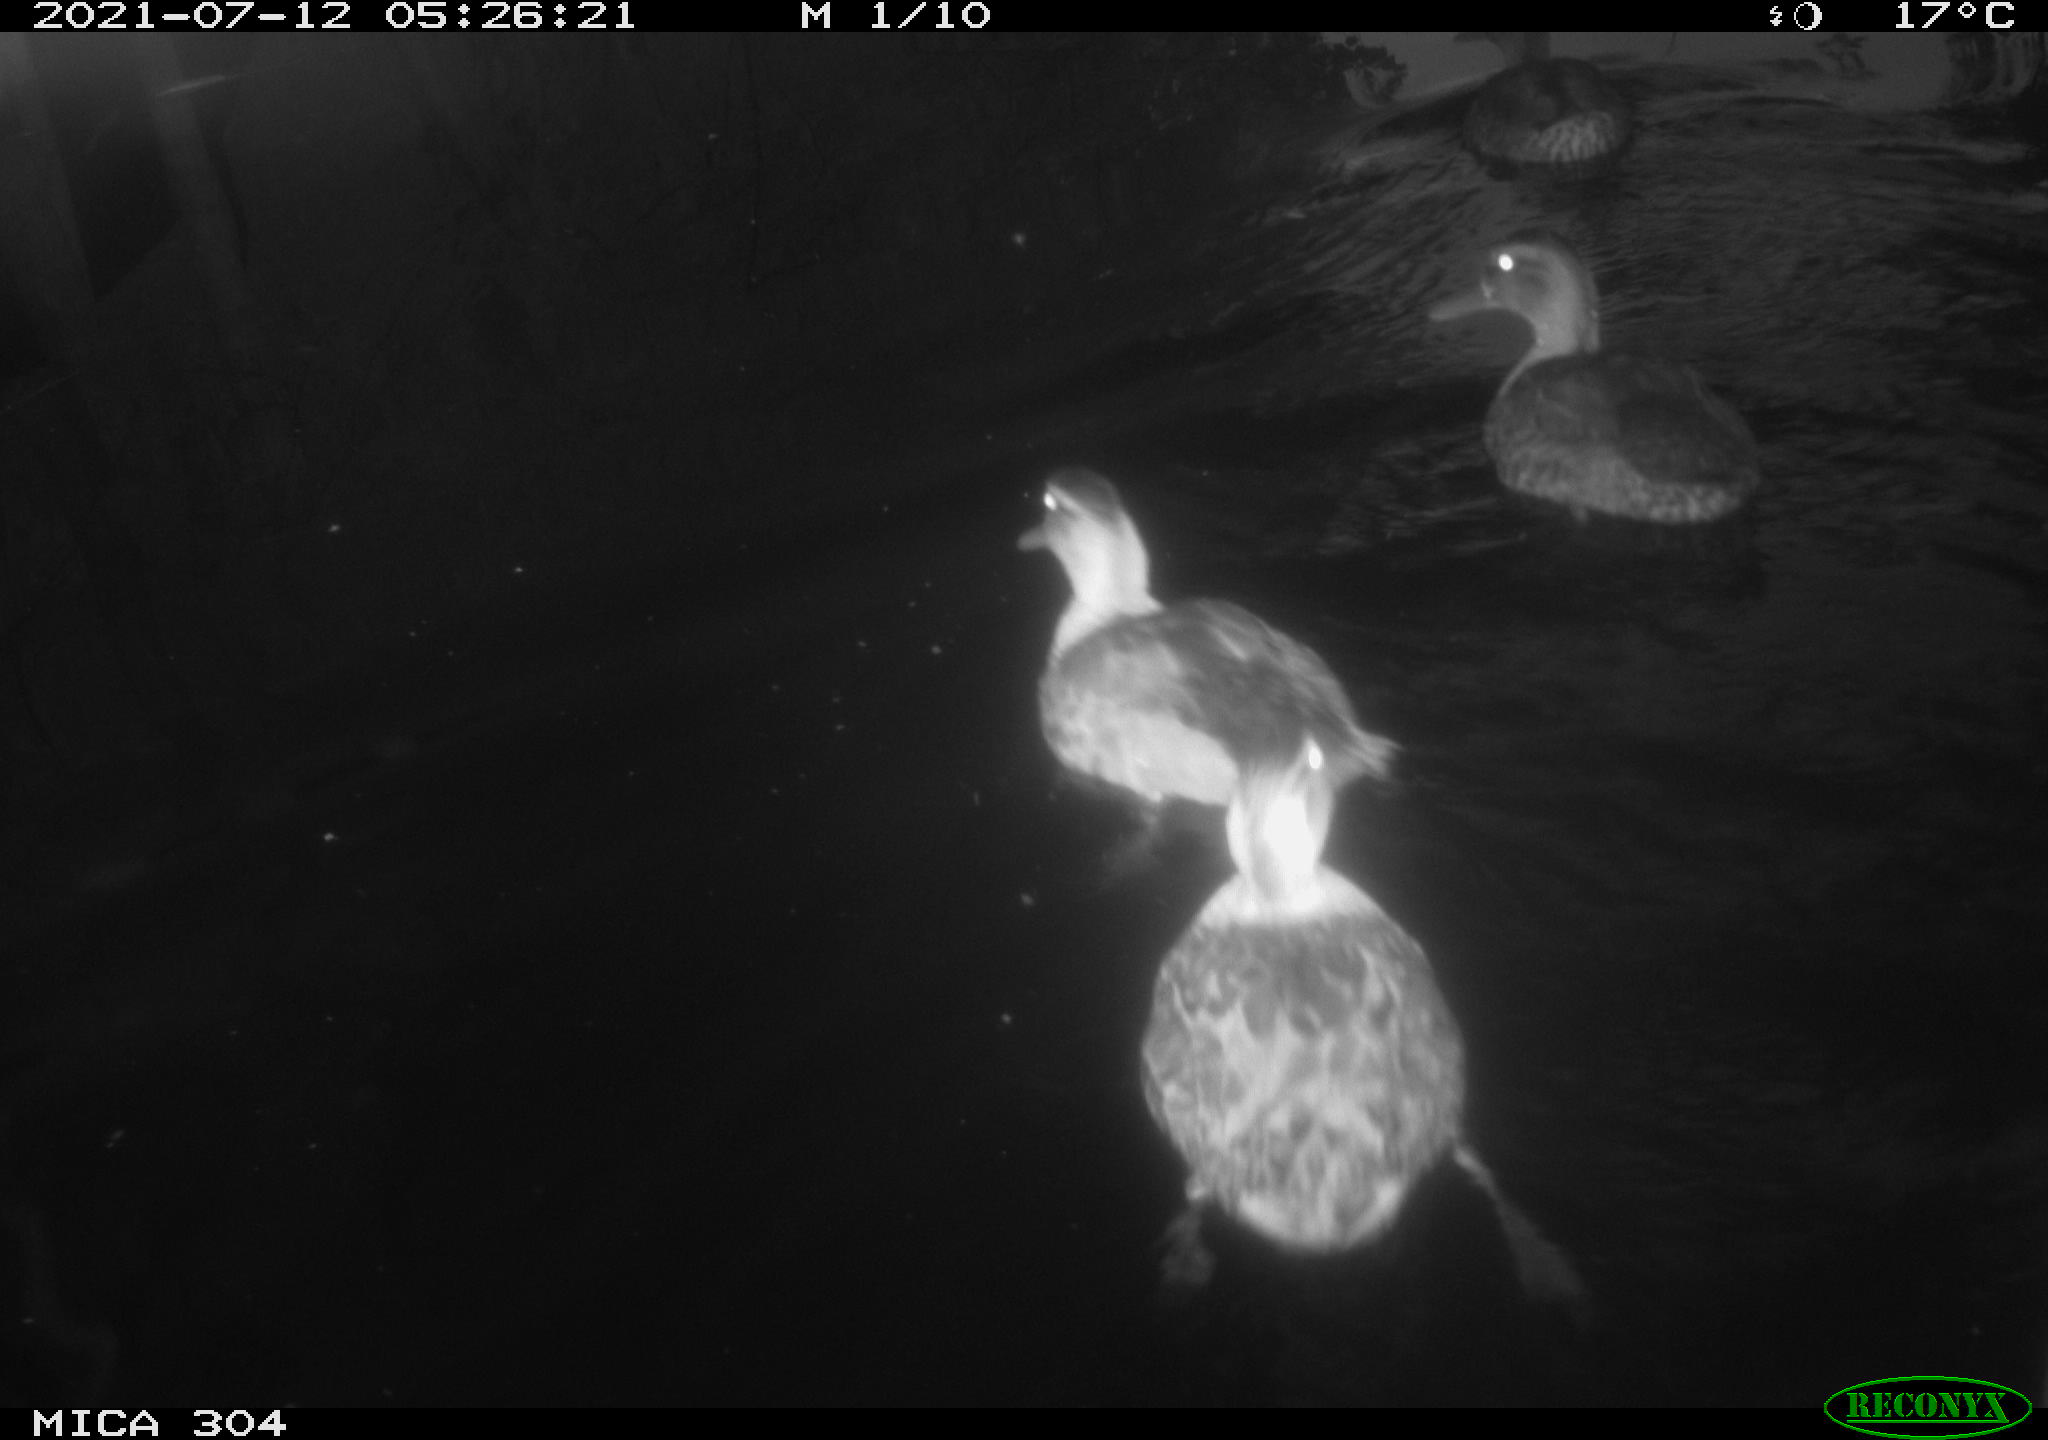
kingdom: Animalia
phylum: Chordata
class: Aves
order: Anseriformes
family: Anatidae
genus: Anas
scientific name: Anas platyrhynchos
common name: Mallard
